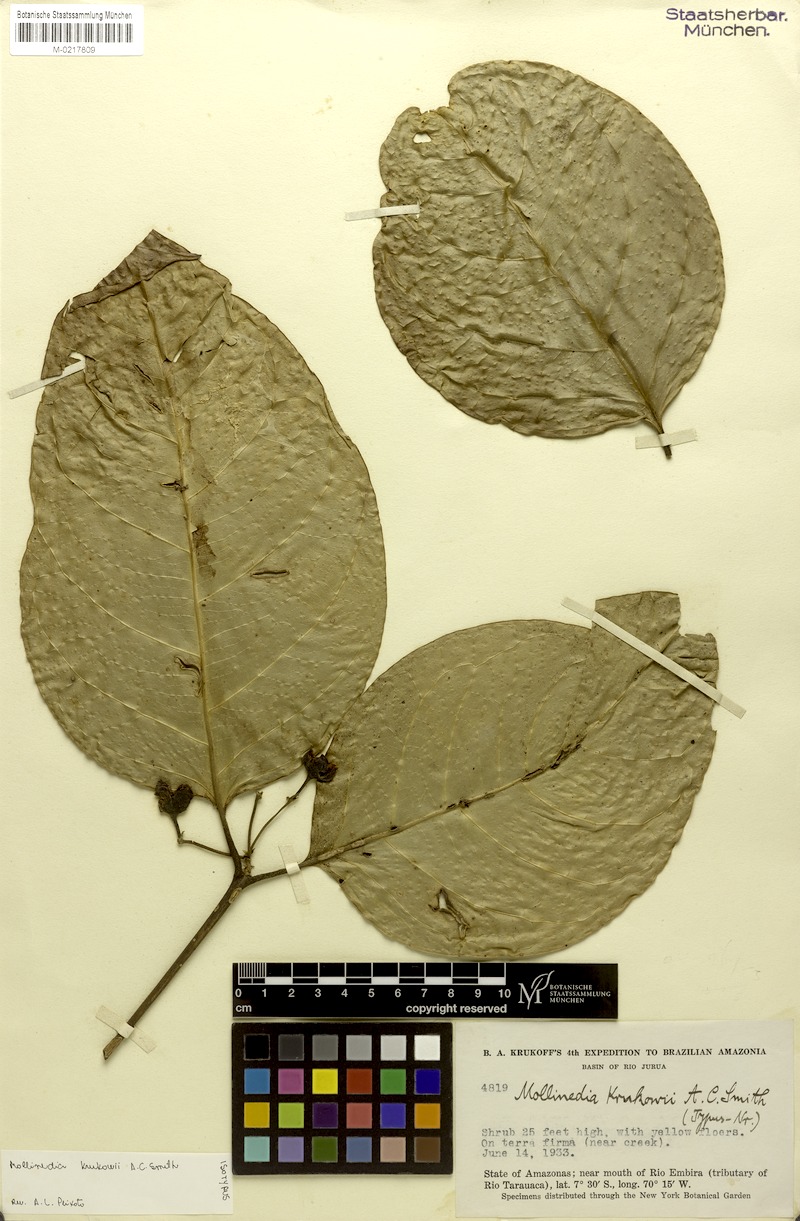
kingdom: Plantae
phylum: Tracheophyta
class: Magnoliopsida
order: Laurales
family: Monimiaceae
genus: Mollinedia
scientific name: Mollinedia ovata
